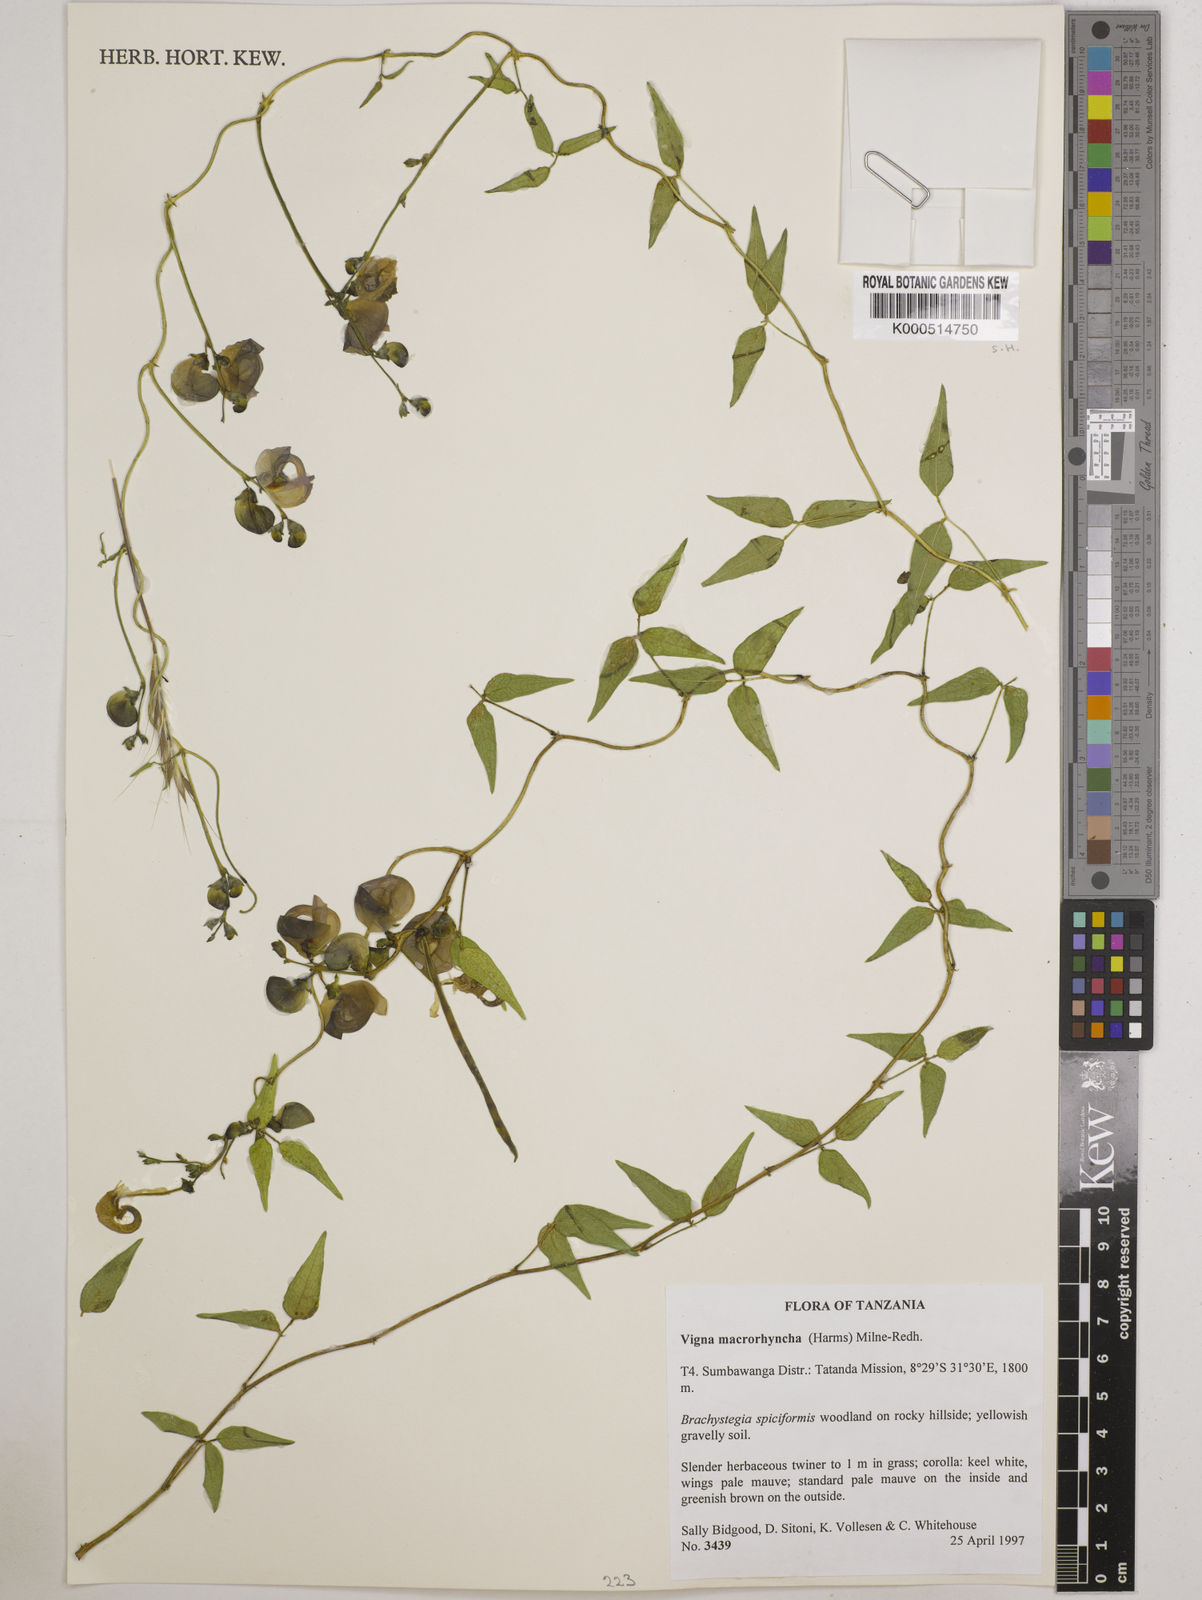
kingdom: Plantae
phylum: Tracheophyta
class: Magnoliopsida
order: Fabales
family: Fabaceae
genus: Wajira
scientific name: Wajira grahamiana
